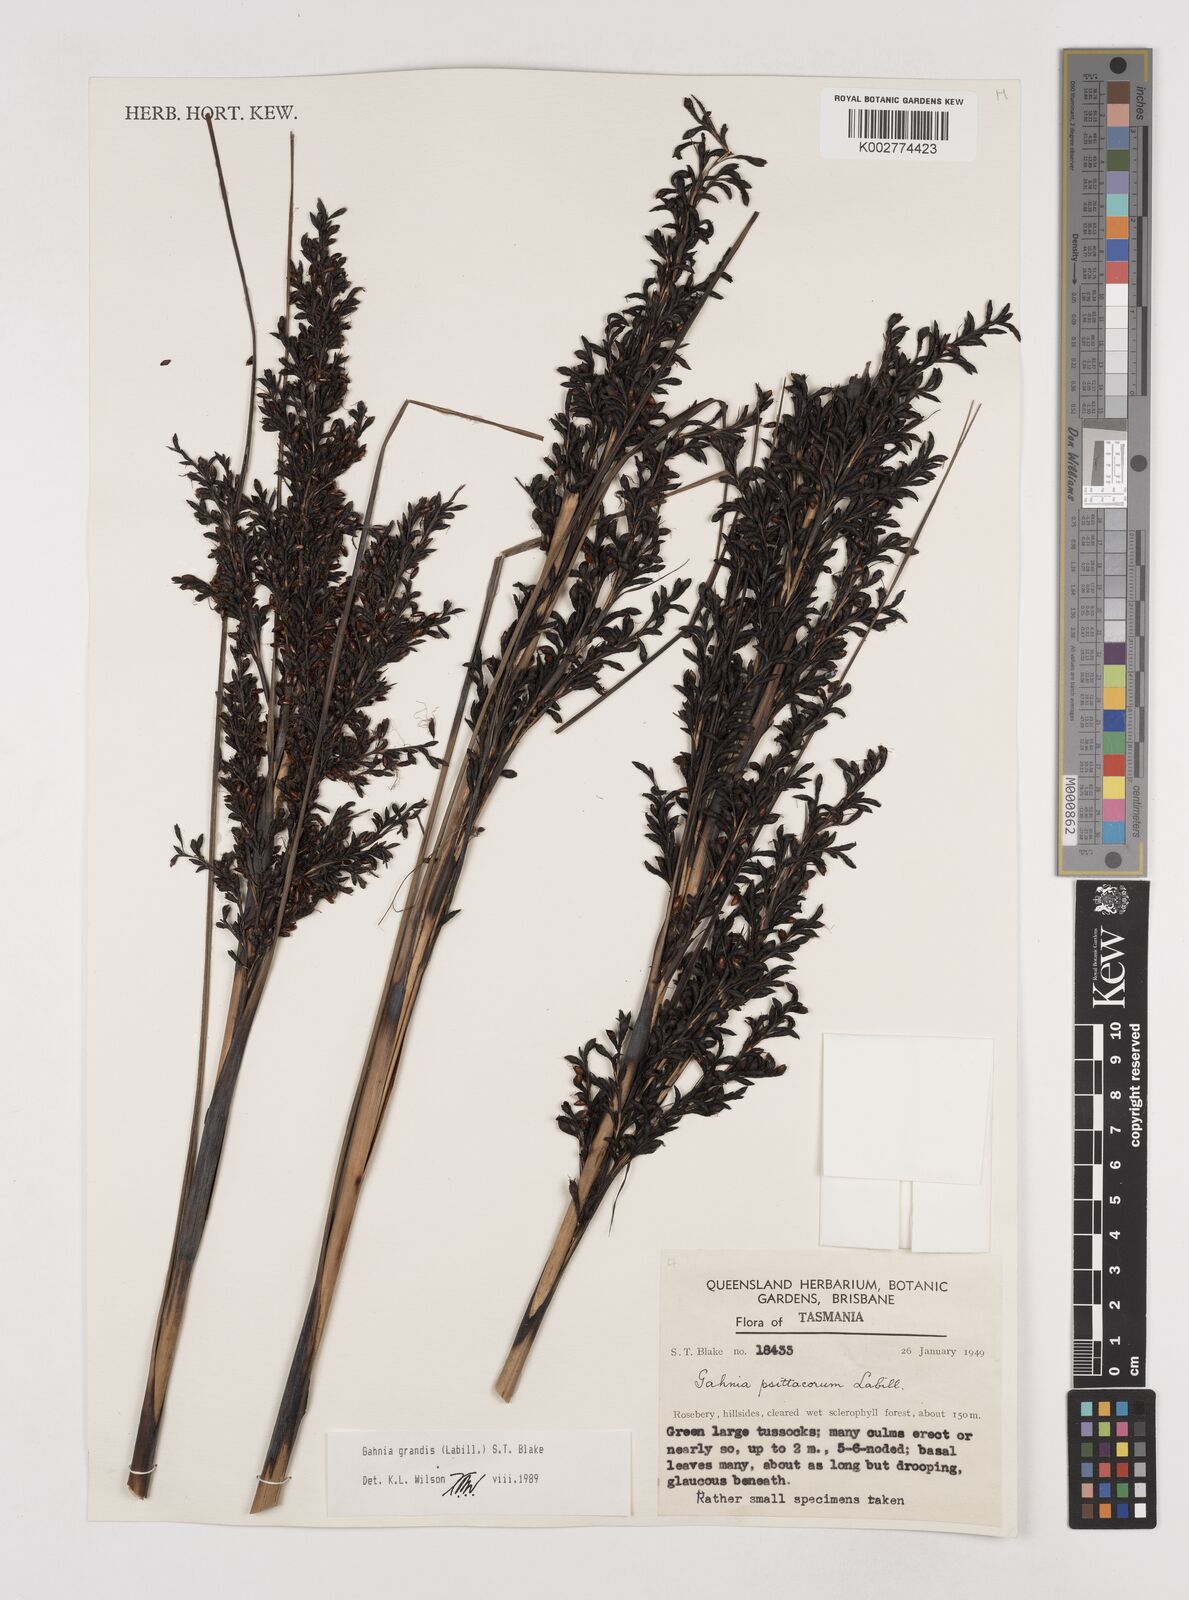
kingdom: Plantae
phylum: Tracheophyta
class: Liliopsida
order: Poales
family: Cyperaceae
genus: Gahnia
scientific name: Gahnia grandis
